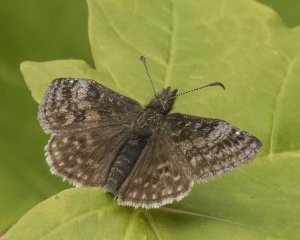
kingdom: Animalia
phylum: Arthropoda
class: Insecta
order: Lepidoptera
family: Hesperiidae
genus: Erynnis
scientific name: Erynnis icelus
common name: Dreamy Duskywing
